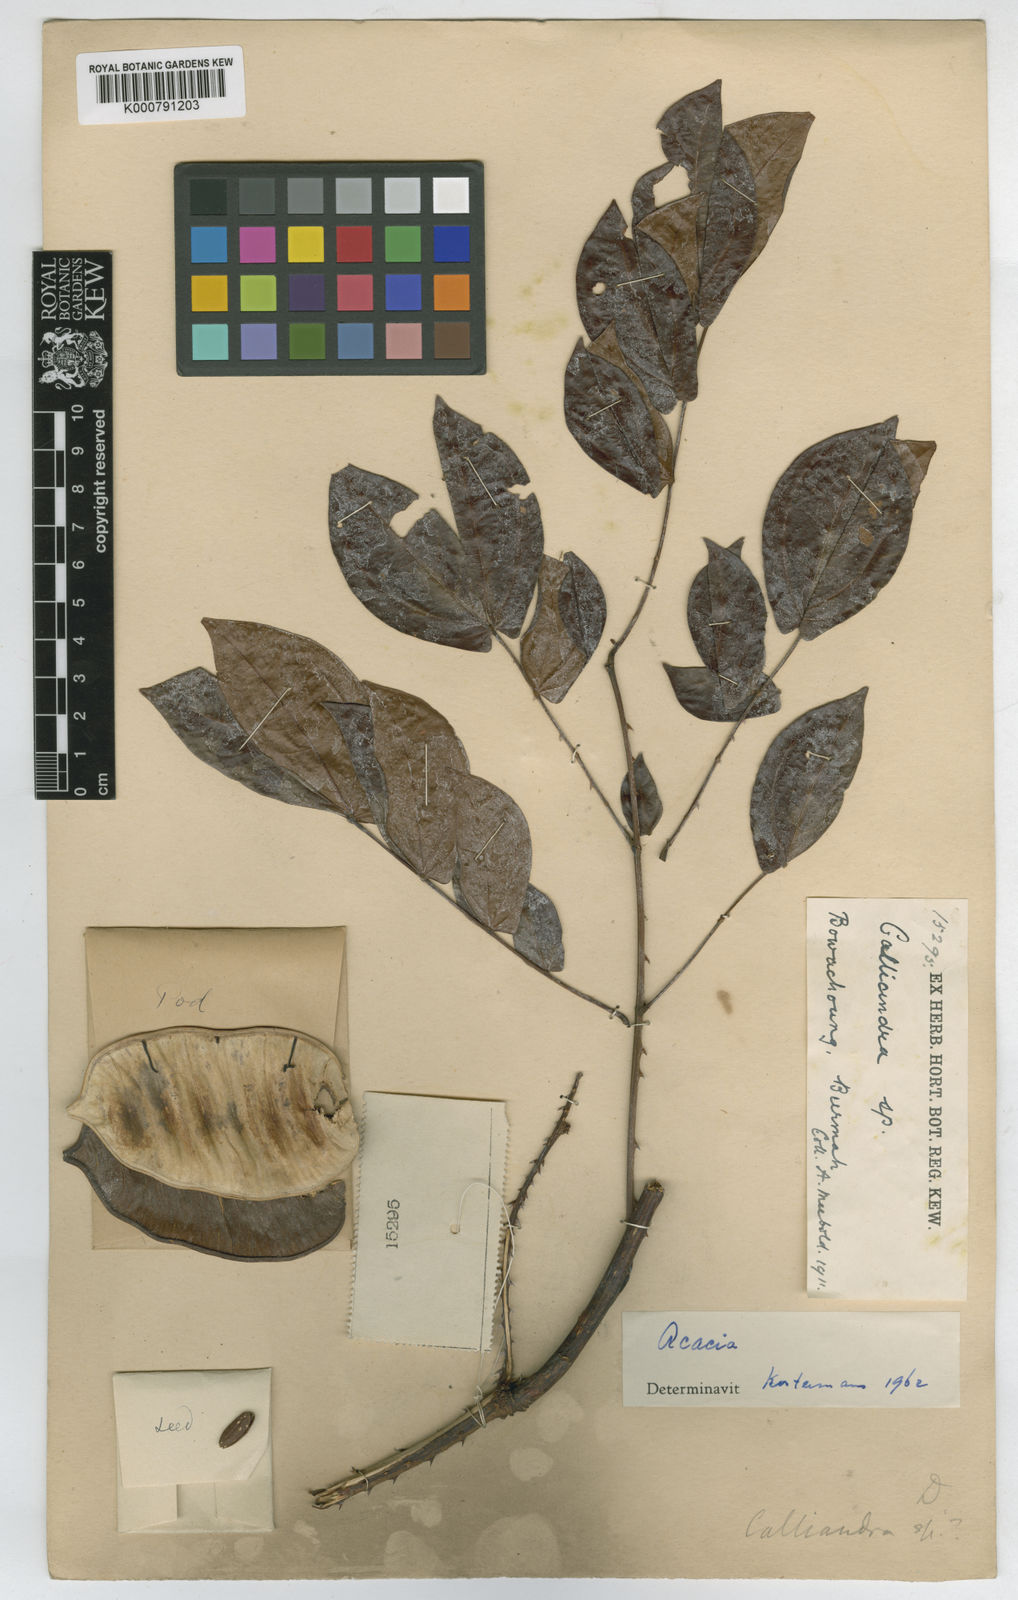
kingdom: Plantae
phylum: Tracheophyta
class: Magnoliopsida
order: Fabales
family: Fabaceae
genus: Senegalia
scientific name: Senegalia meeboldii
